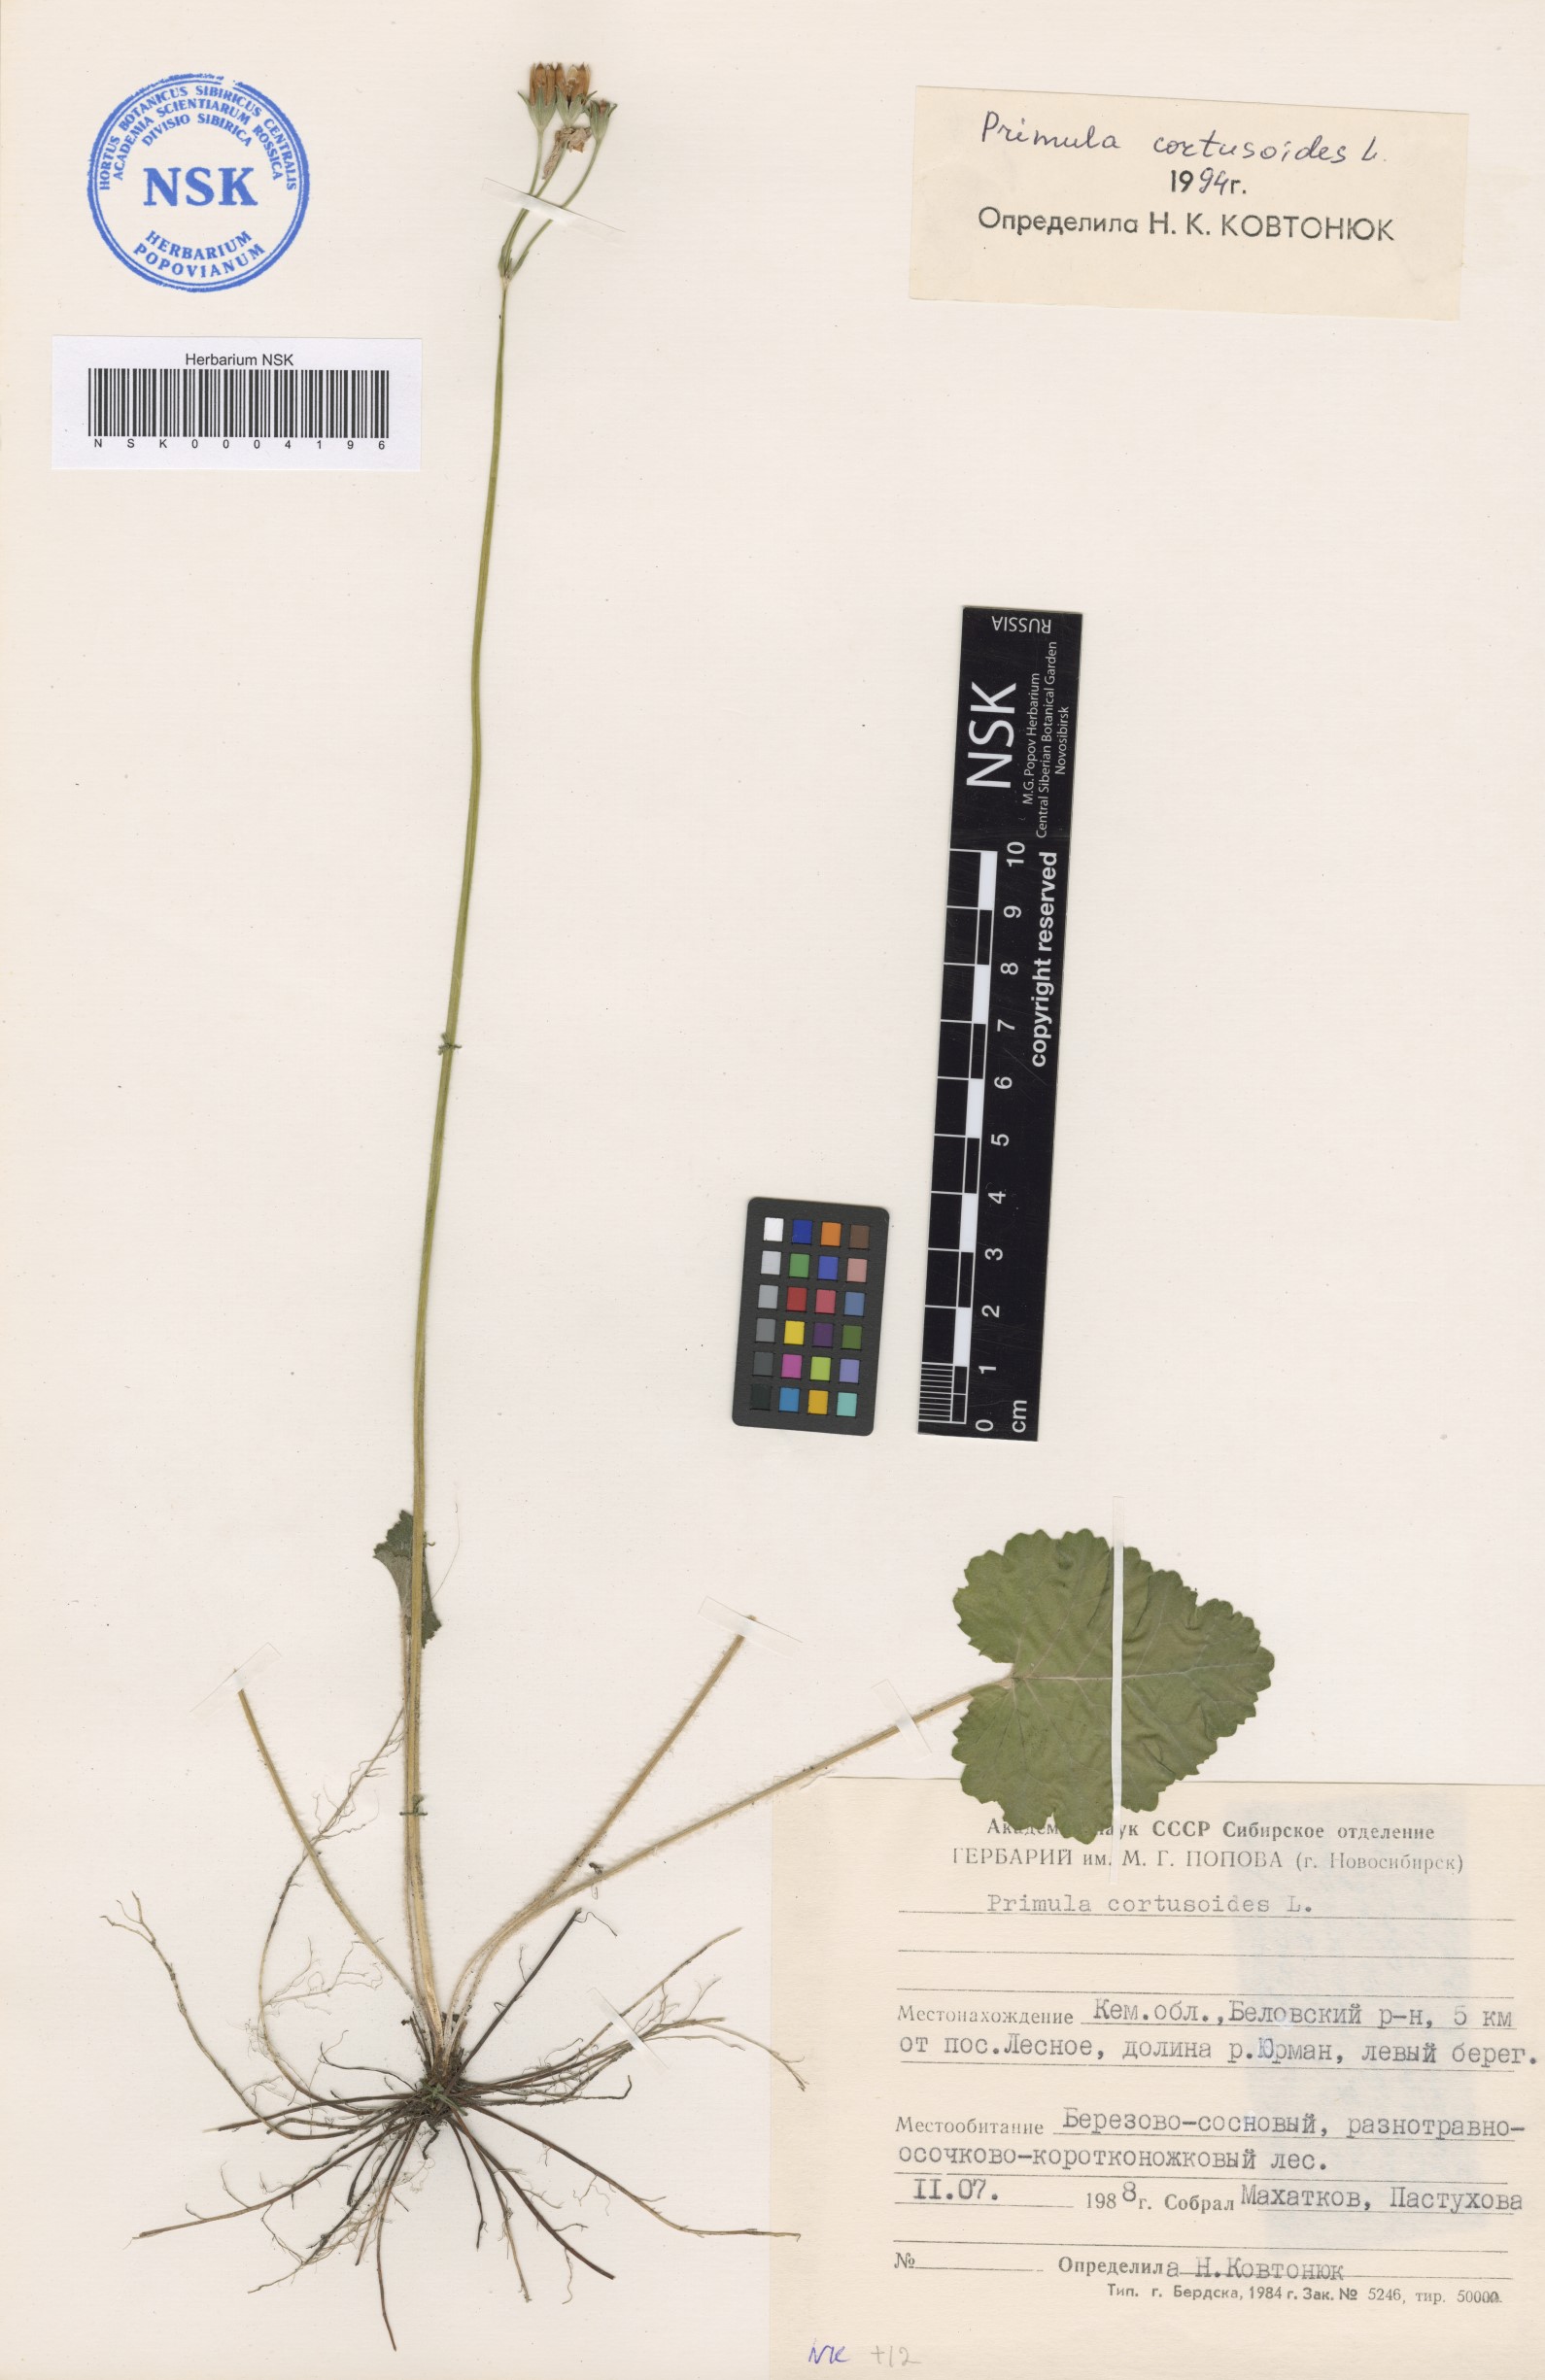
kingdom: Plantae
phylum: Tracheophyta
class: Magnoliopsida
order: Ericales
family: Primulaceae
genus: Primula
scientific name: Primula cortusoides
